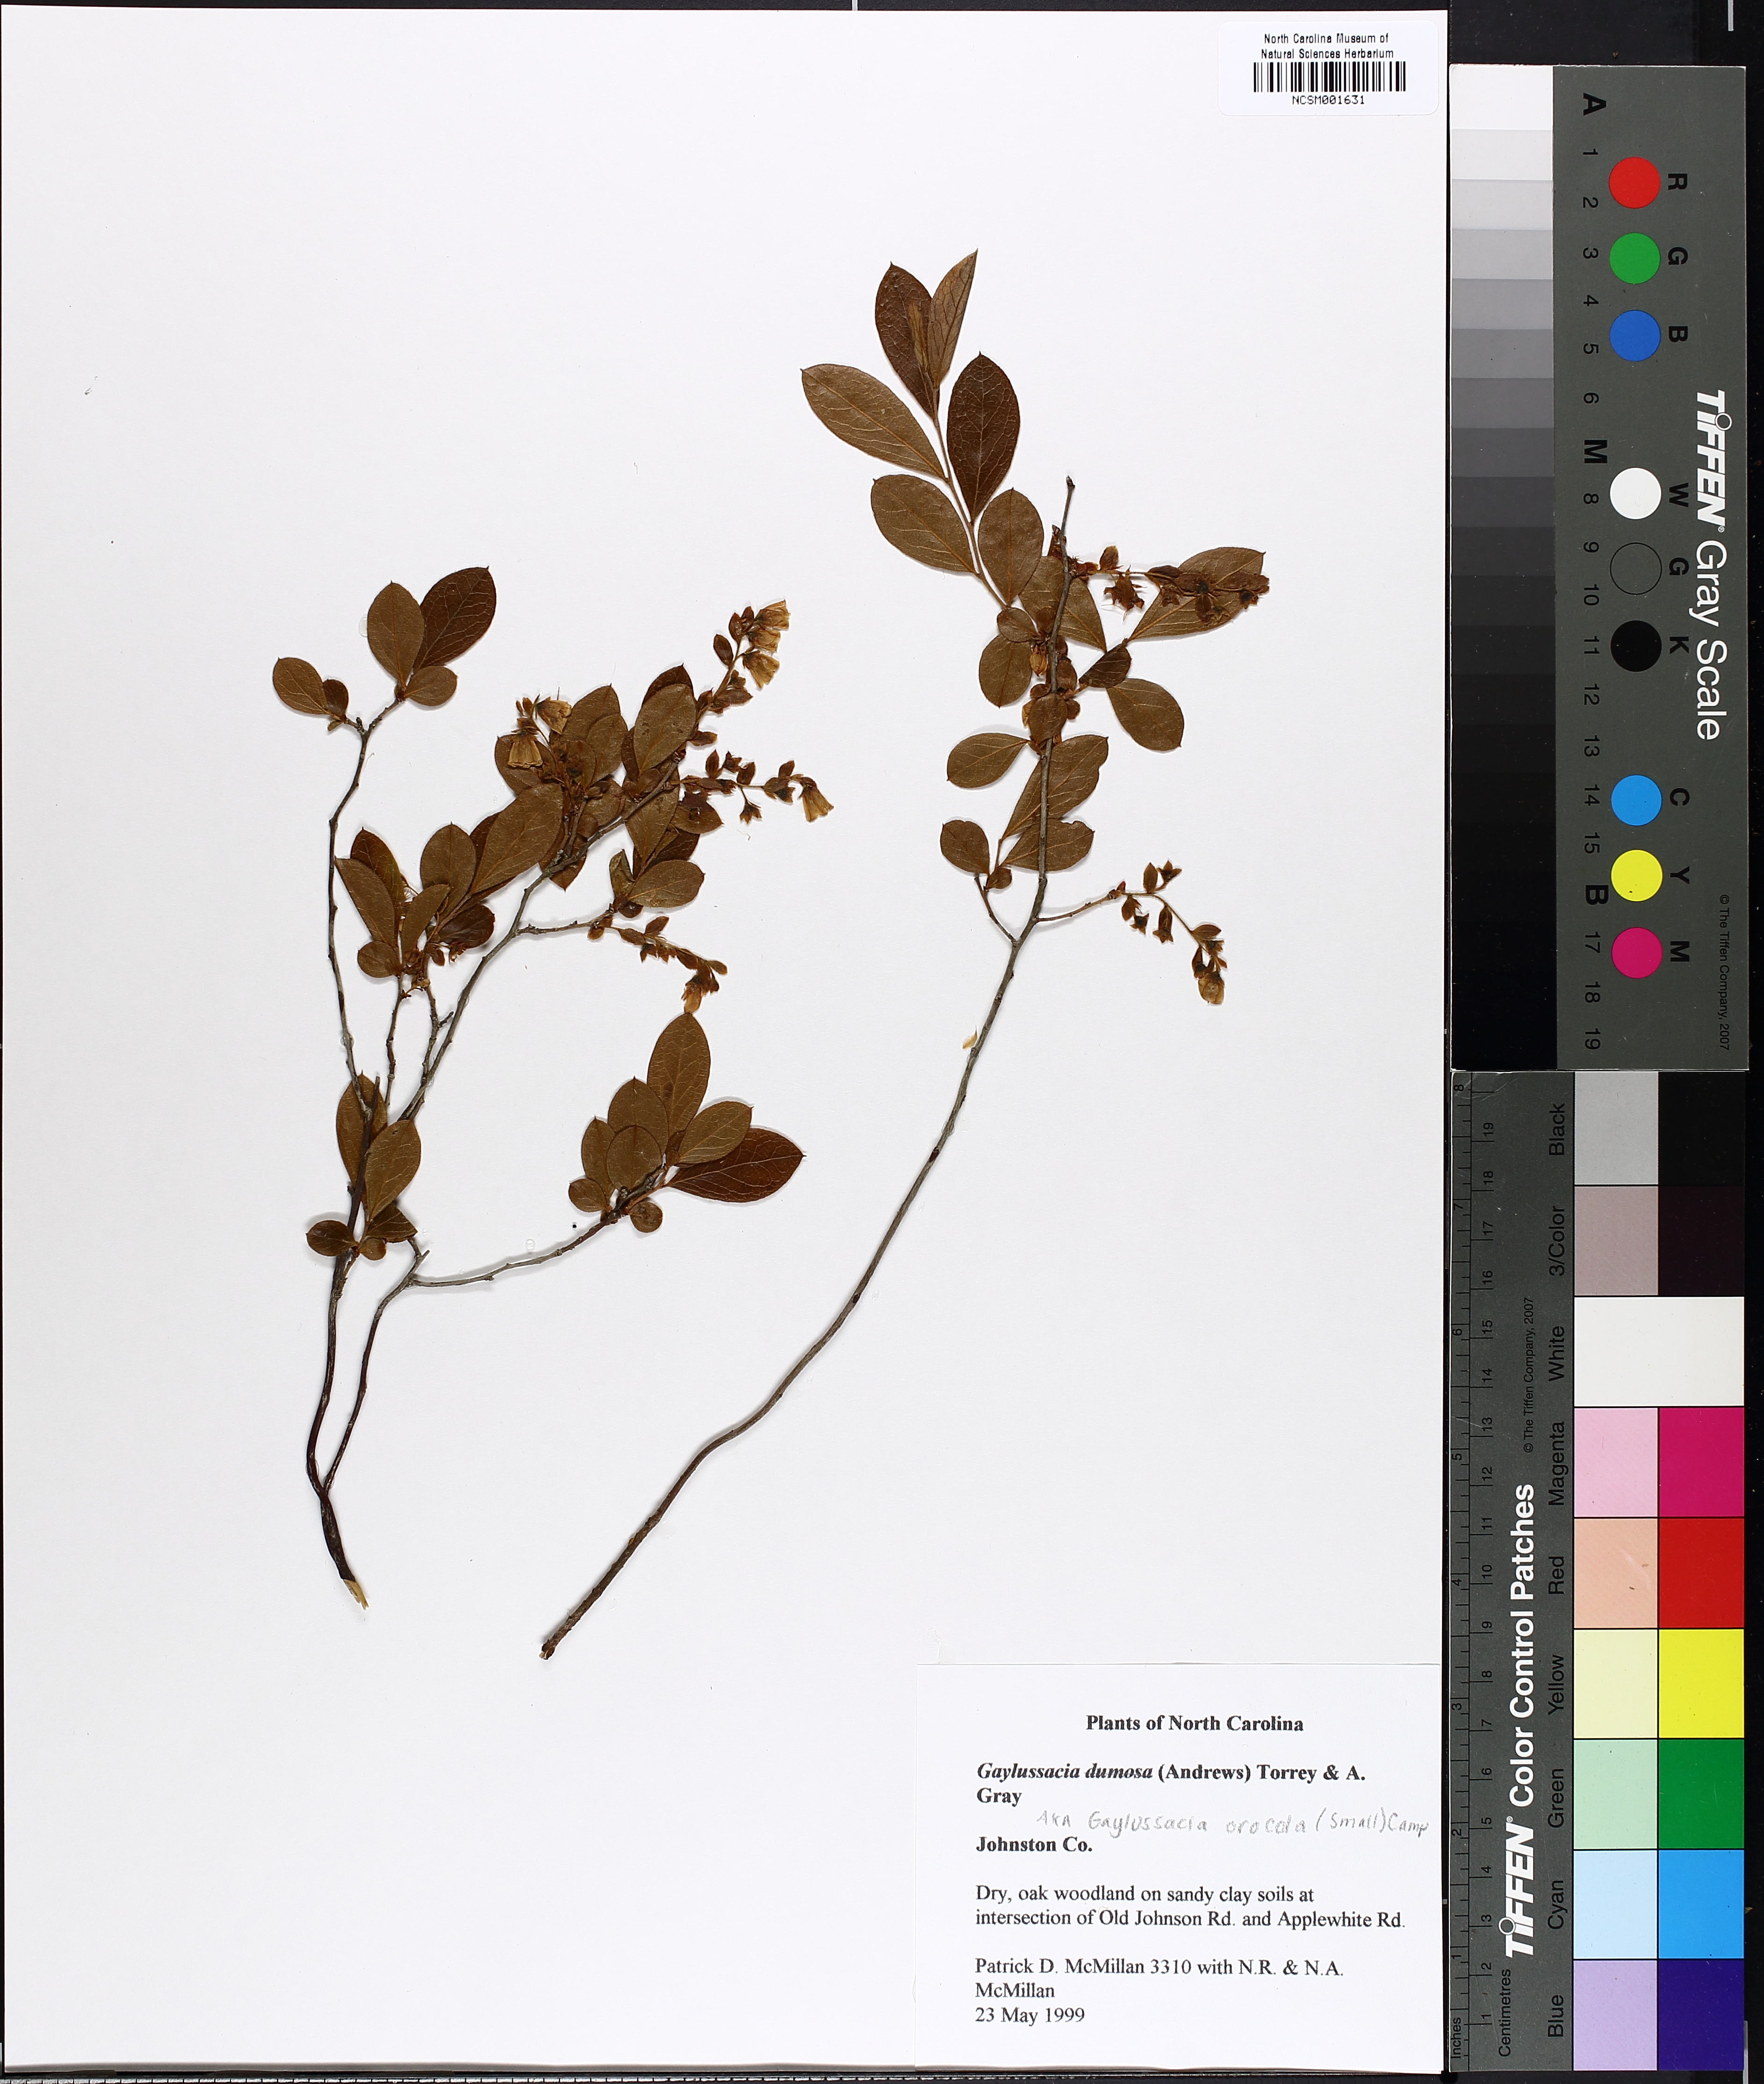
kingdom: Plantae
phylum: Tracheophyta
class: Magnoliopsida
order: Ericales
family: Ericaceae
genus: Gaylussacia
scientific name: Gaylussacia dumosa
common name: Dwarf huckleberry
